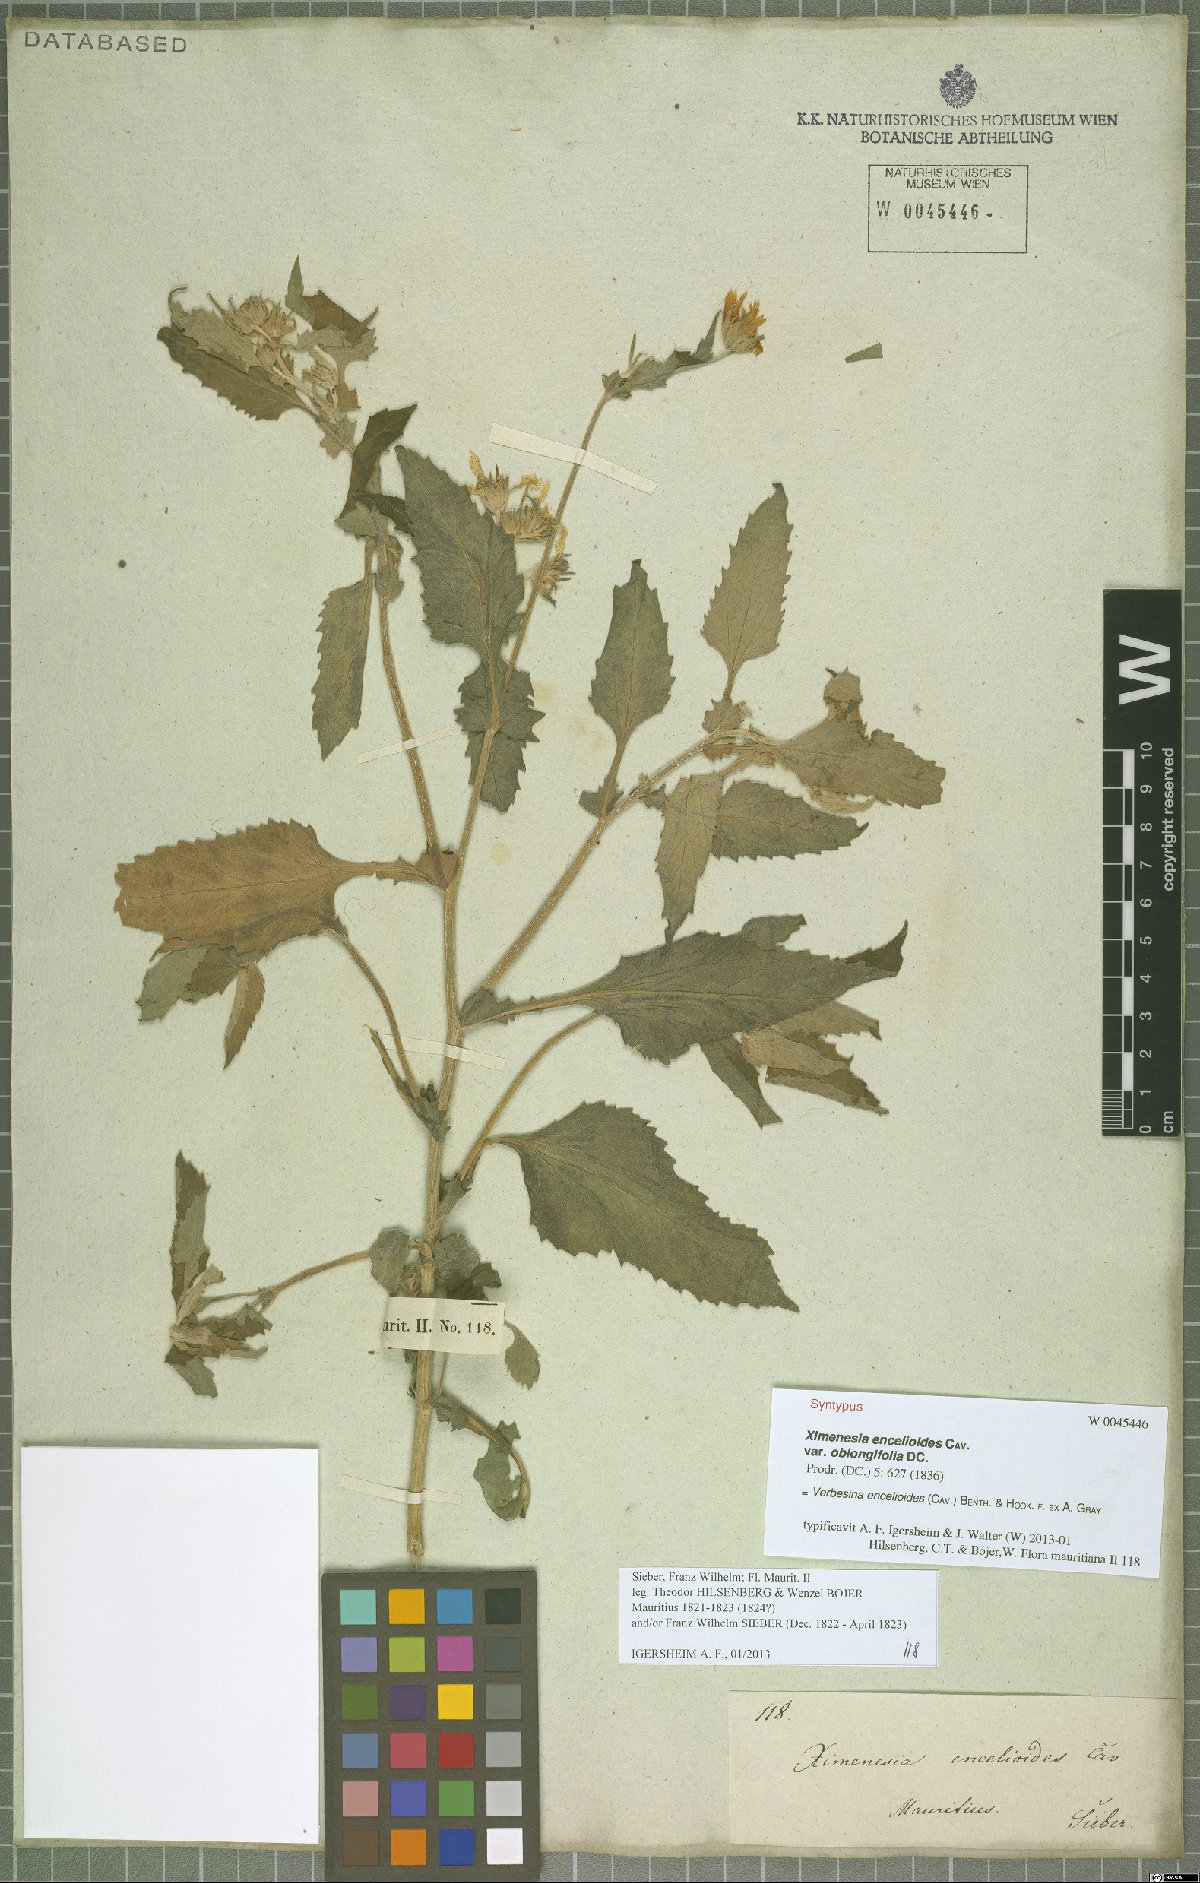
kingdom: Plantae
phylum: Tracheophyta
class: Magnoliopsida
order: Asterales
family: Asteraceae
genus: Verbesina
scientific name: Verbesina encelioides
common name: Golden crownbeard
